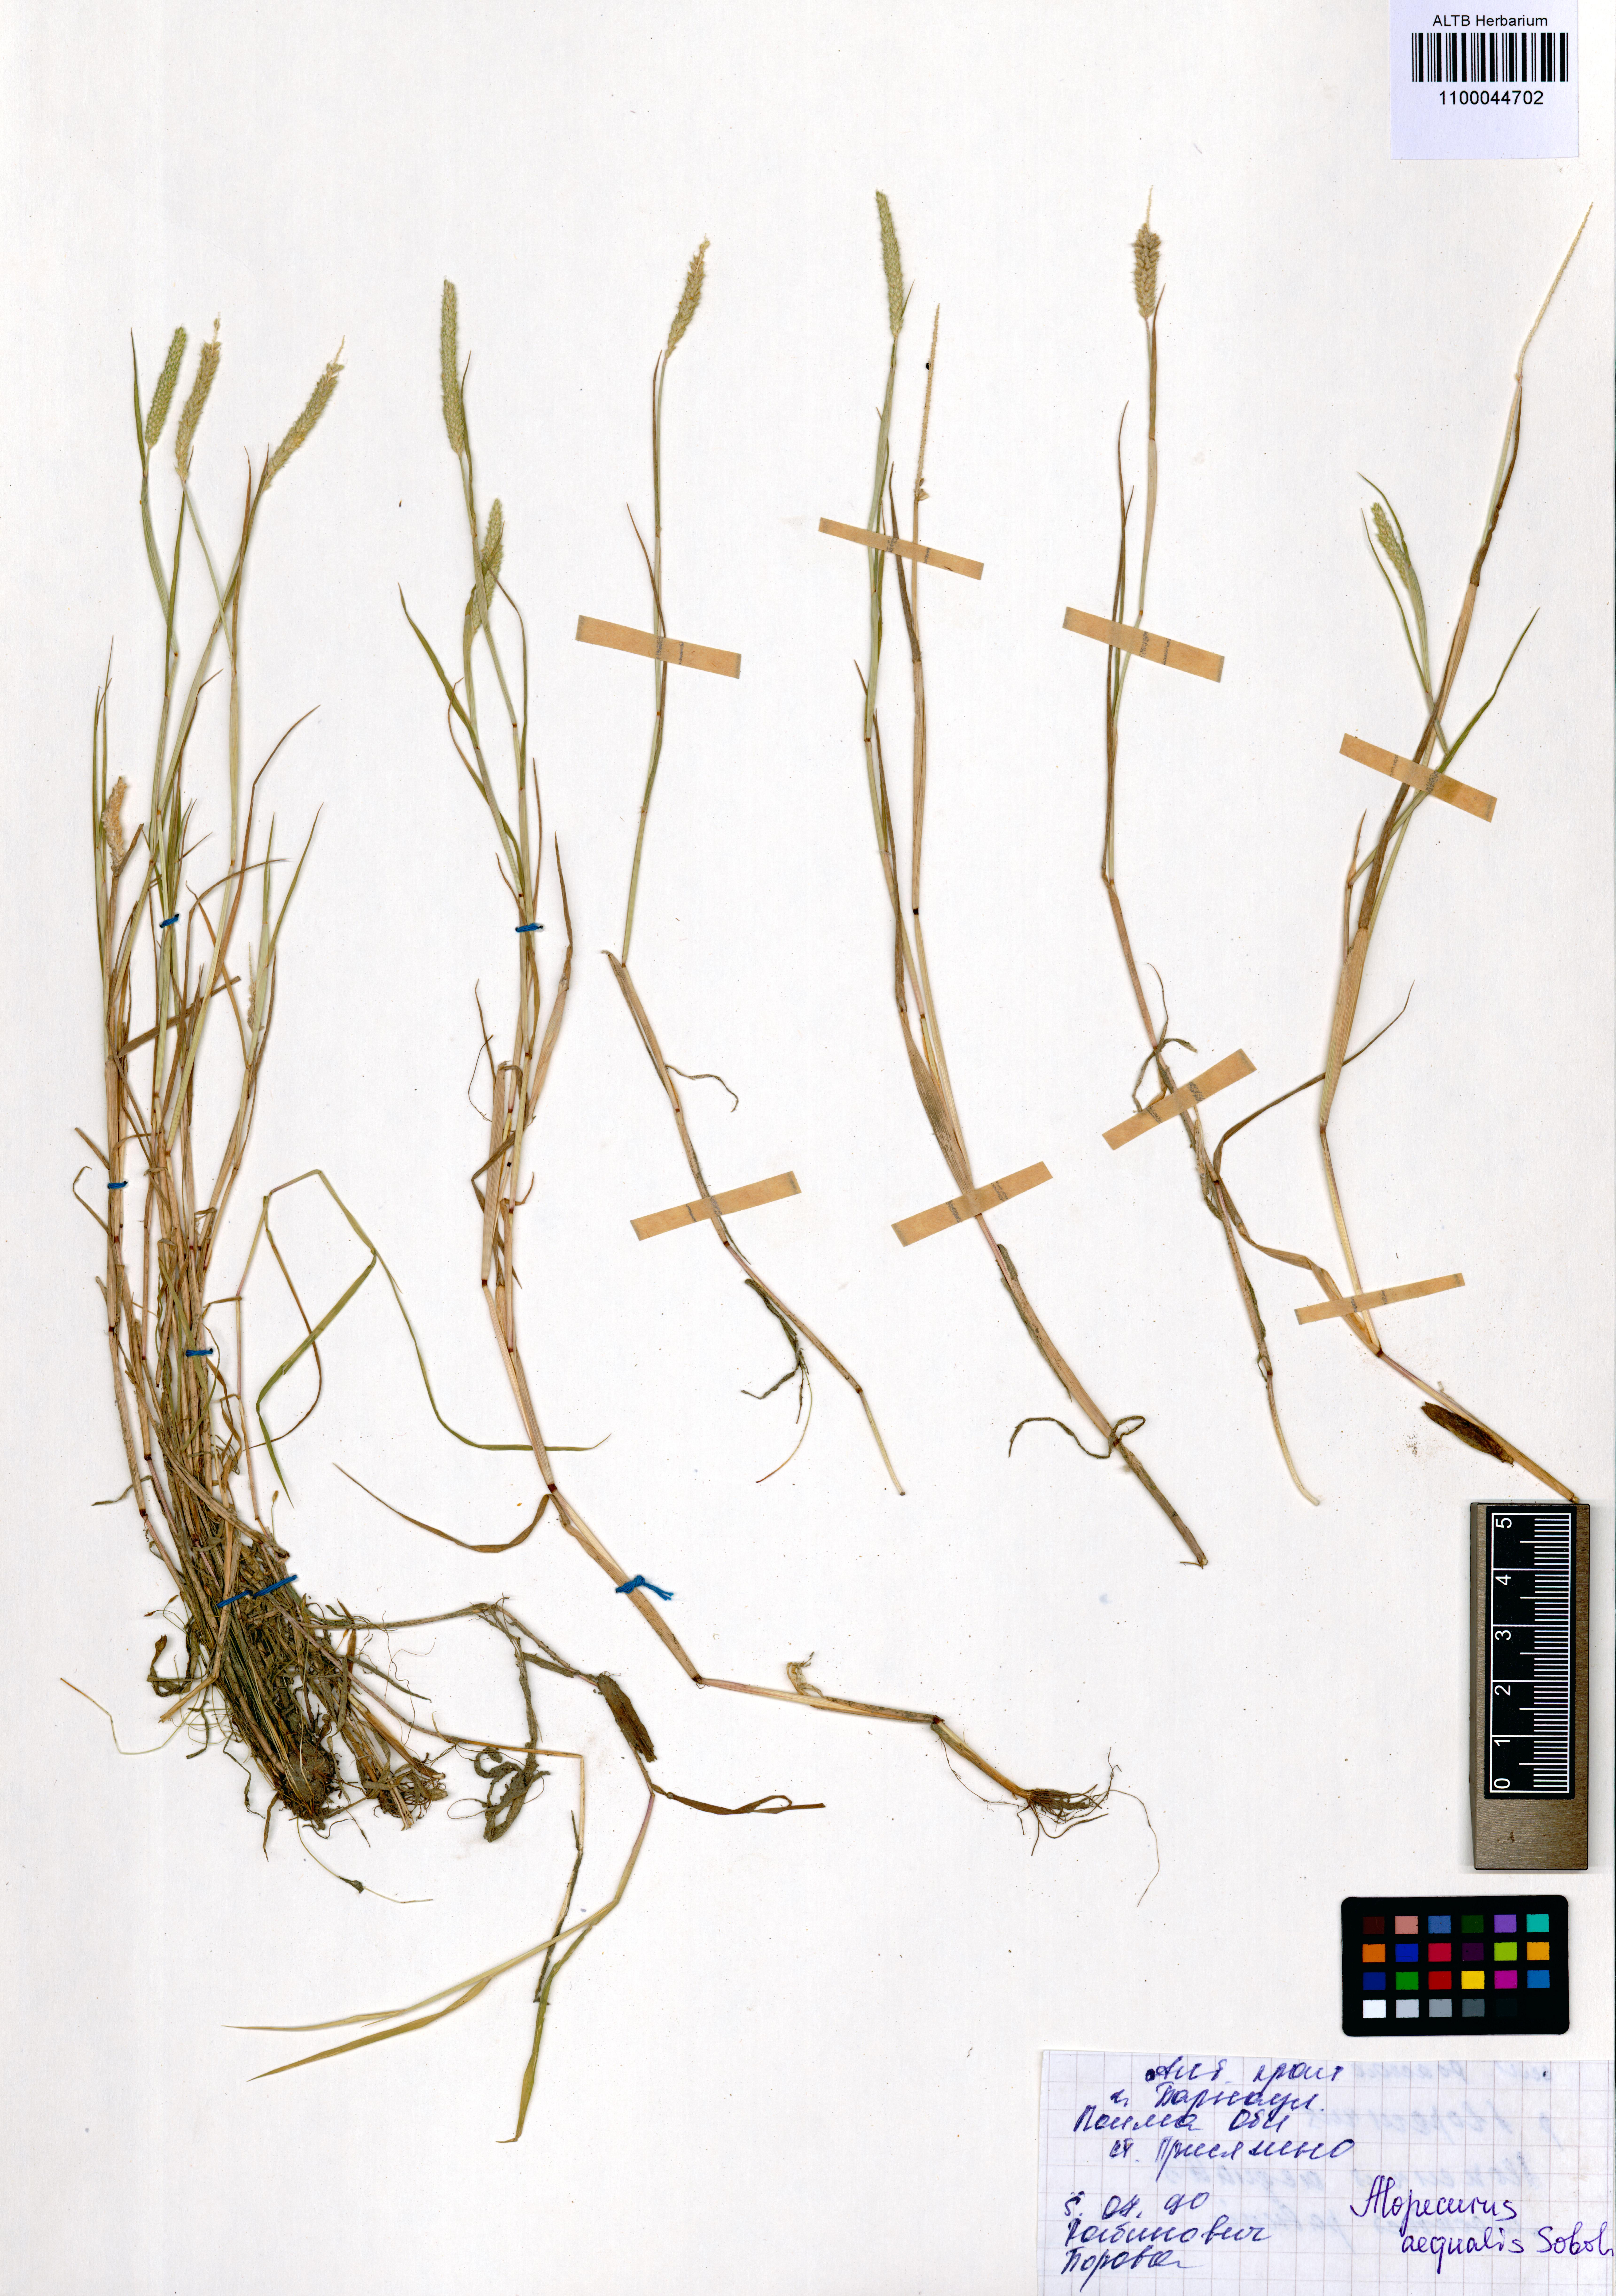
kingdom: Plantae
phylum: Tracheophyta
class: Liliopsida
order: Poales
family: Poaceae
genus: Alopecurus
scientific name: Alopecurus aequalis
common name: Orange foxtail
